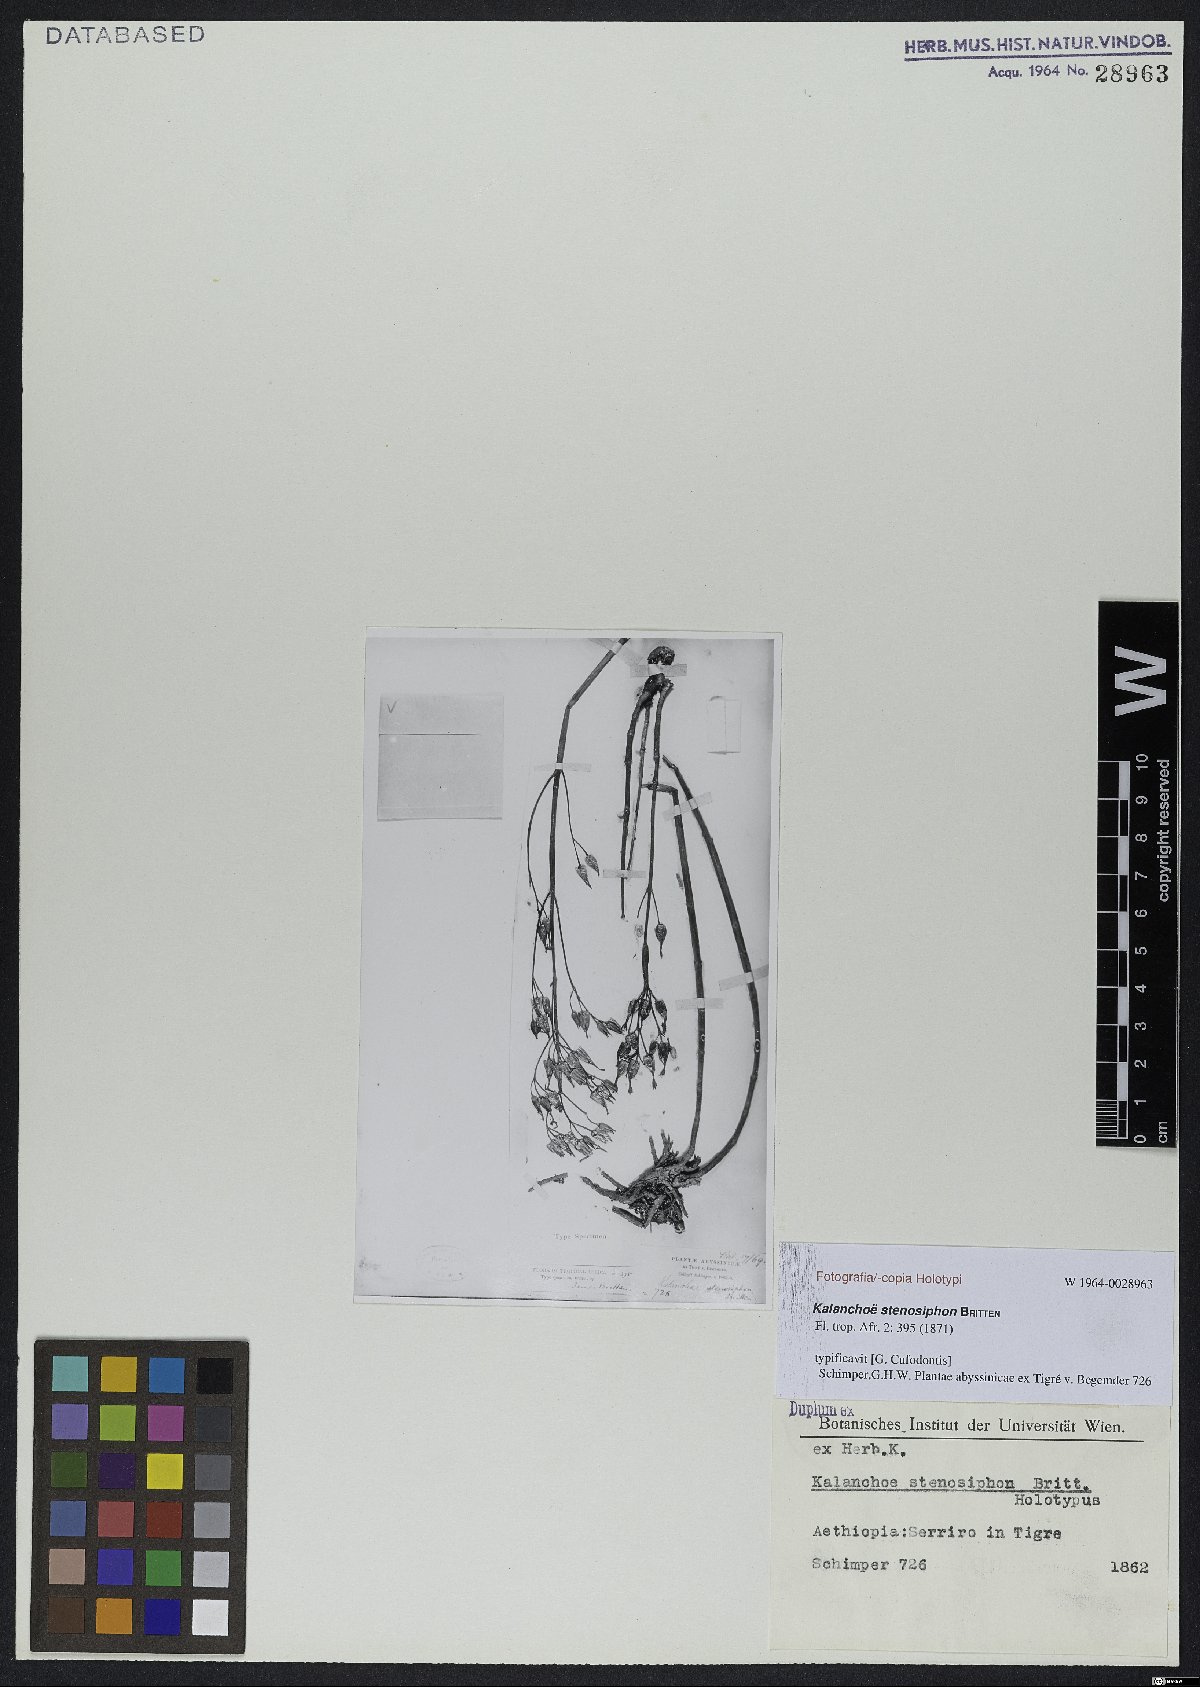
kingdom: Plantae
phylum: Tracheophyta
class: Magnoliopsida
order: Saxifragales
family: Crassulaceae
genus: Kalanchoe
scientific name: Kalanchoe stenosiphon
